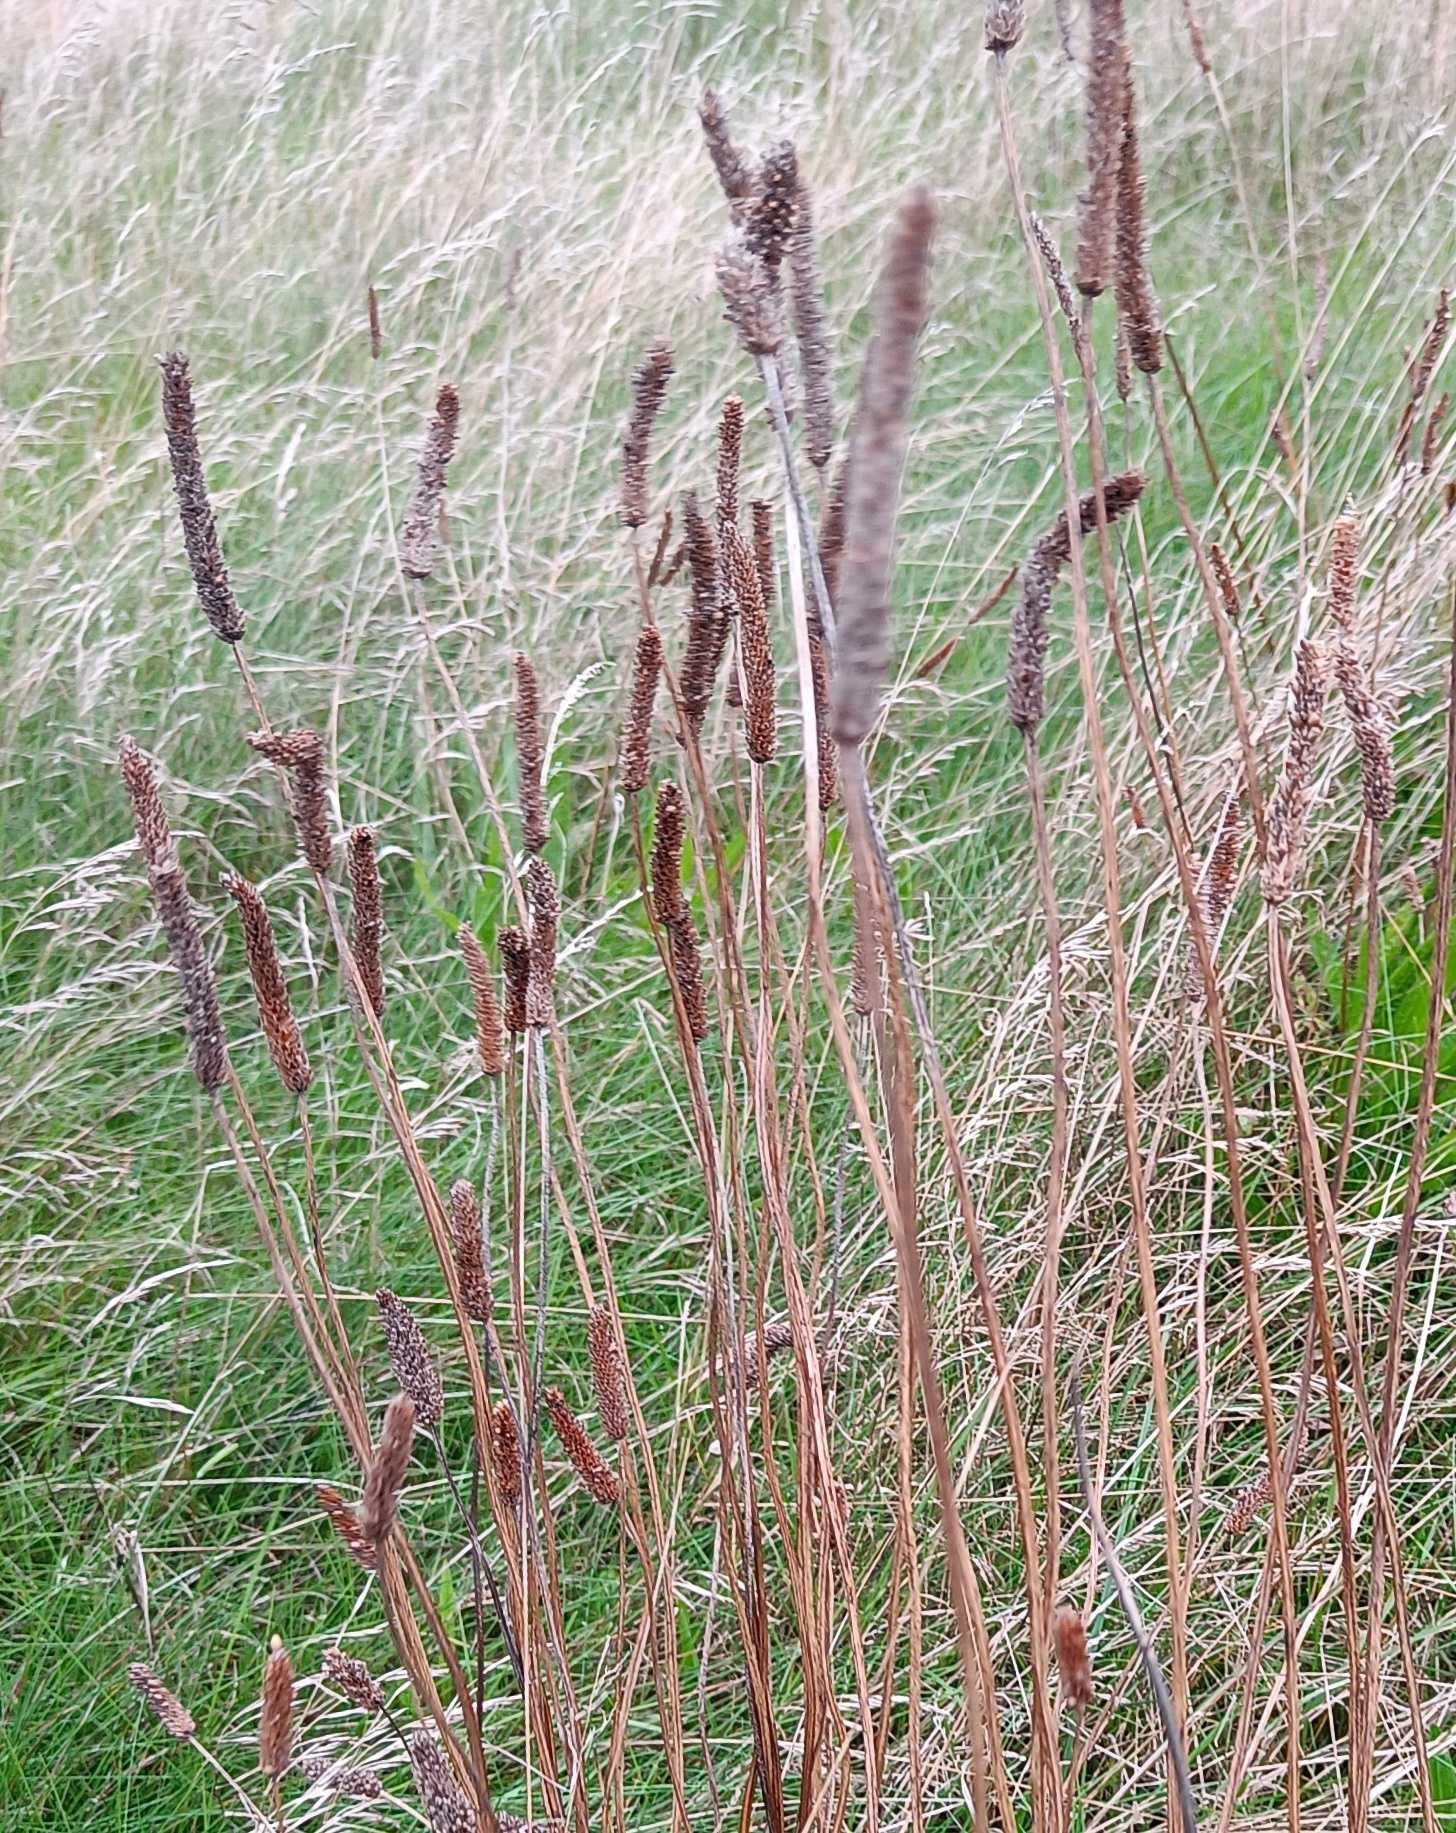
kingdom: Plantae
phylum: Tracheophyta
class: Liliopsida
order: Poales
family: Poaceae
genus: Phleum
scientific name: Phleum pratense
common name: Eng-rottehale
